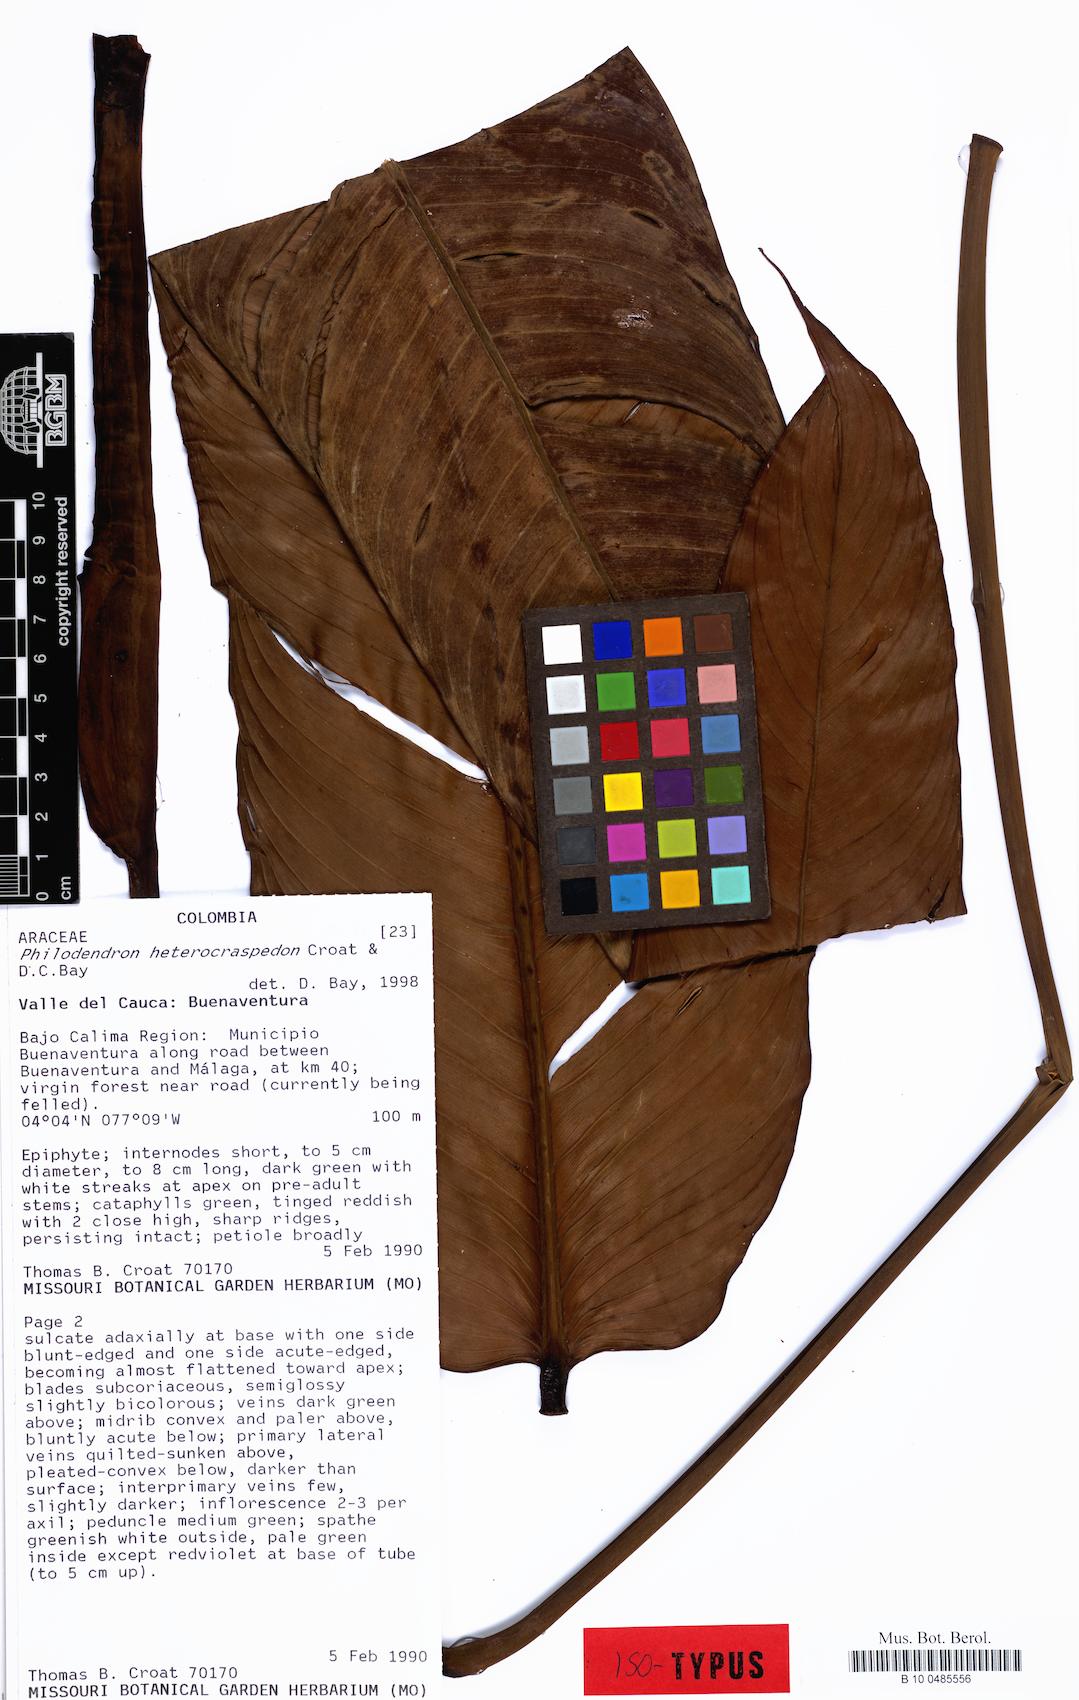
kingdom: Plantae
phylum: Tracheophyta
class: Liliopsida
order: Alismatales
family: Araceae
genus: Philodendron
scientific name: Philodendron heterocraspedon
